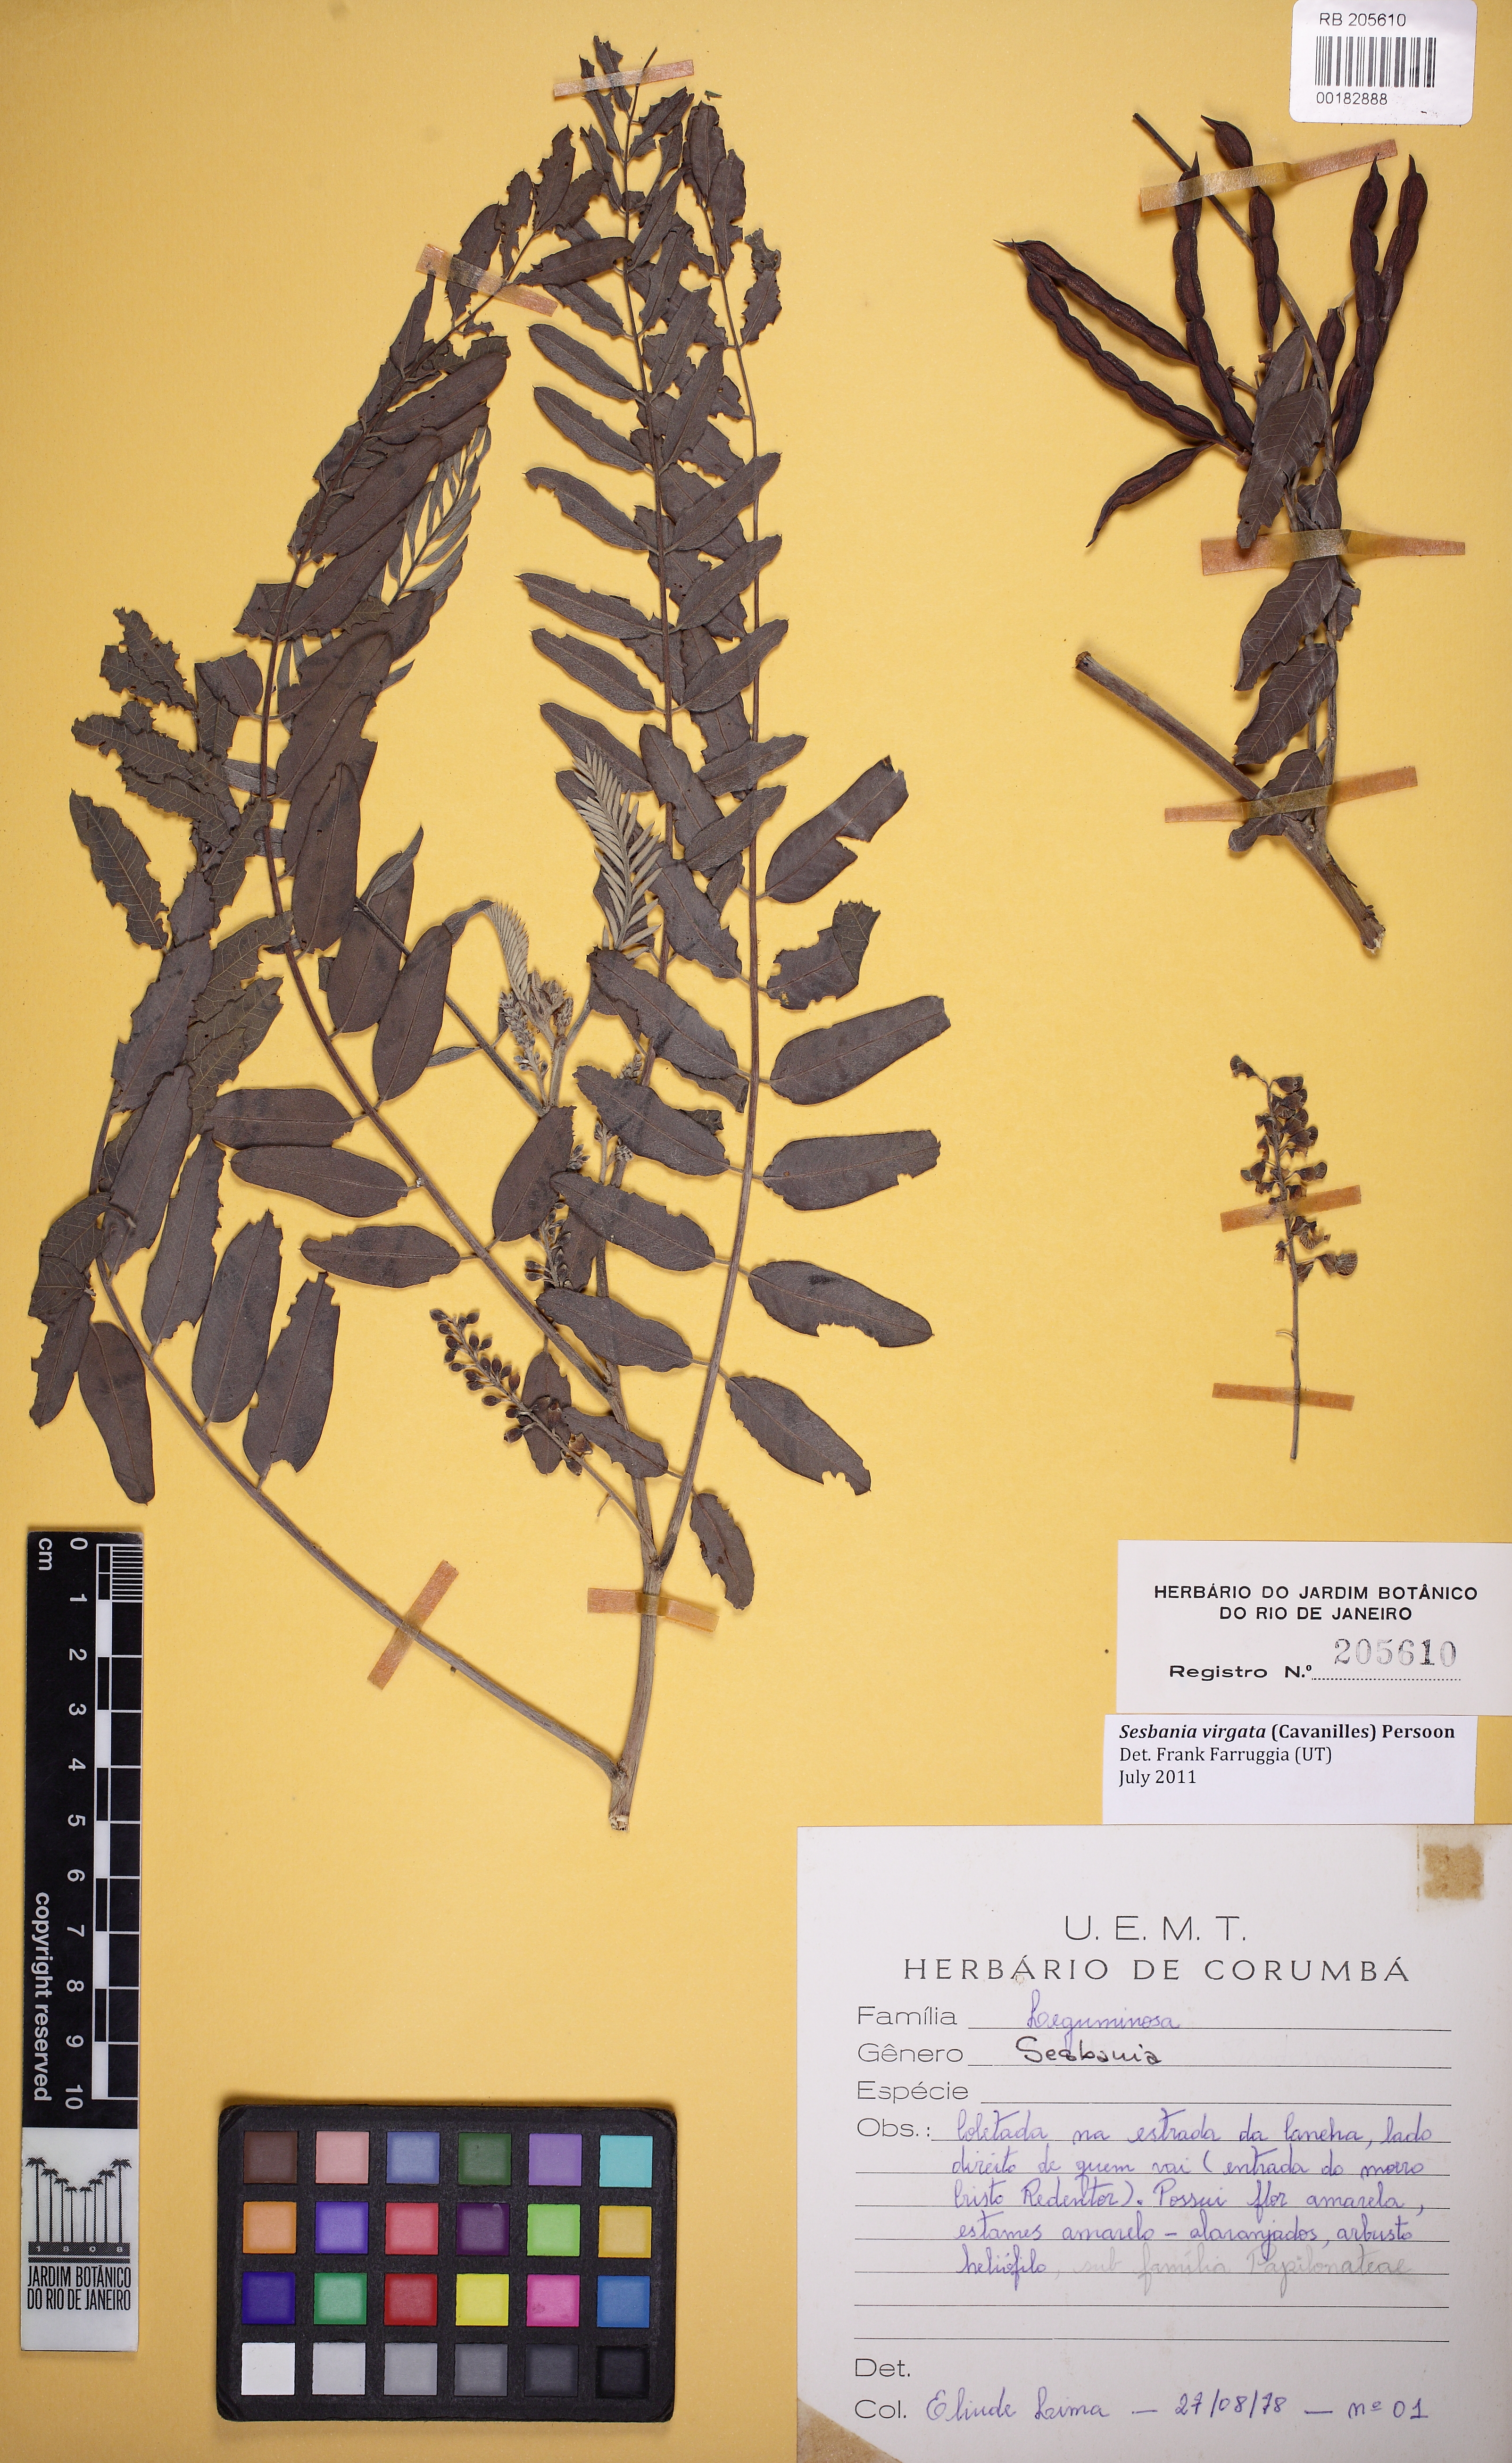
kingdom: Plantae
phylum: Tracheophyta
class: Magnoliopsida
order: Fabales
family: Fabaceae
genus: Sesbania
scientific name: Sesbania virgata
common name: Wand riverhemp
